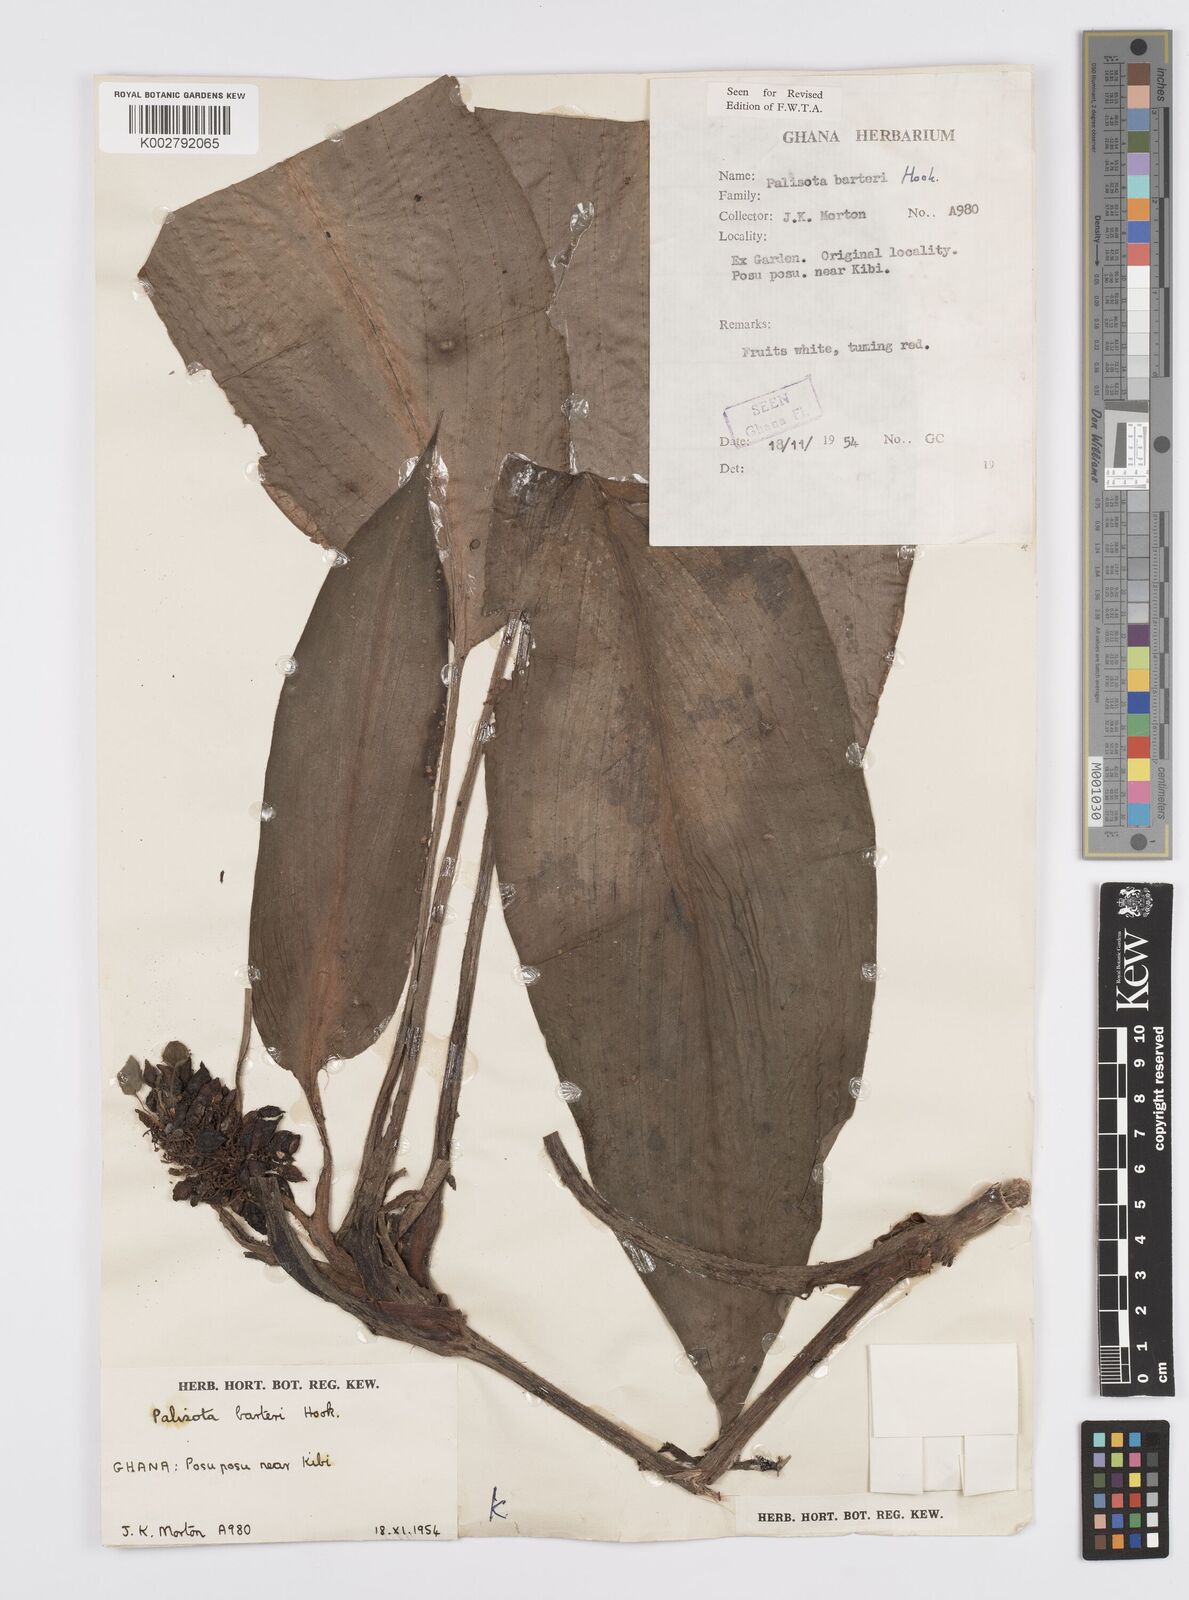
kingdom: Plantae
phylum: Tracheophyta
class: Liliopsida
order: Commelinales
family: Commelinaceae
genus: Palisota
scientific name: Palisota barteri
